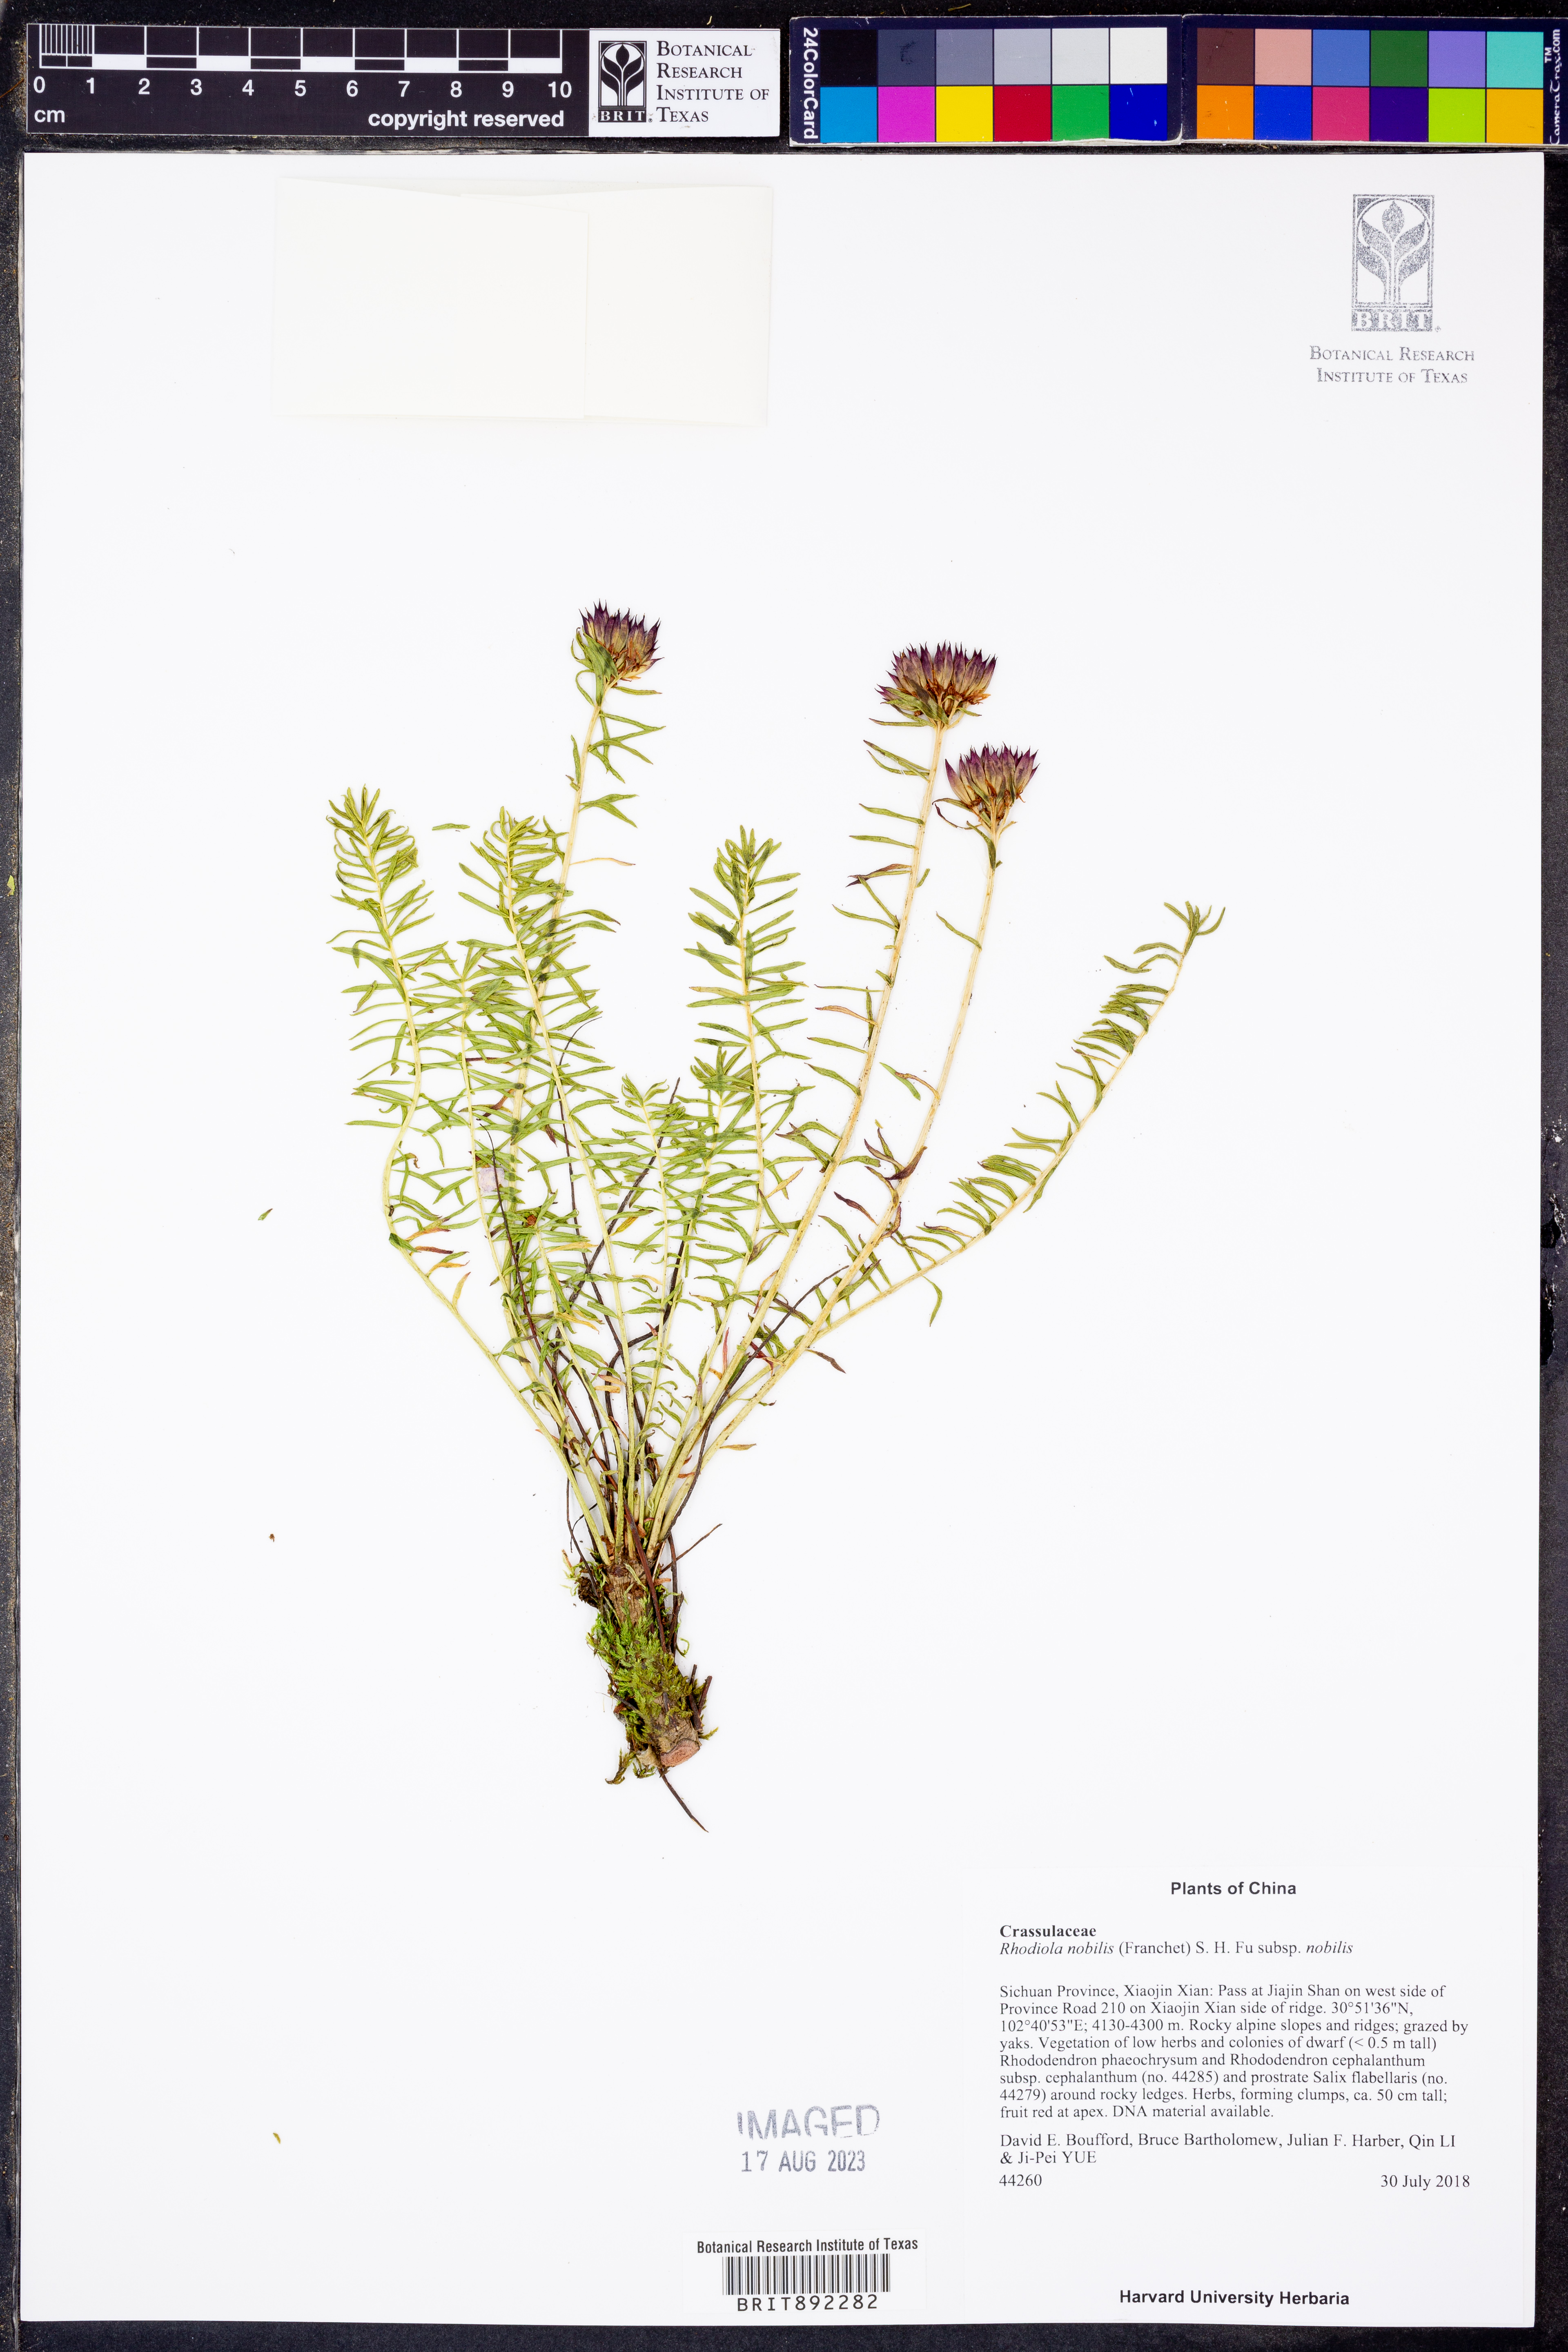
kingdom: Plantae
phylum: Tracheophyta
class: Magnoliopsida
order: Saxifragales
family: Crassulaceae
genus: Rhodiola
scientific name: Rhodiola nobilis
